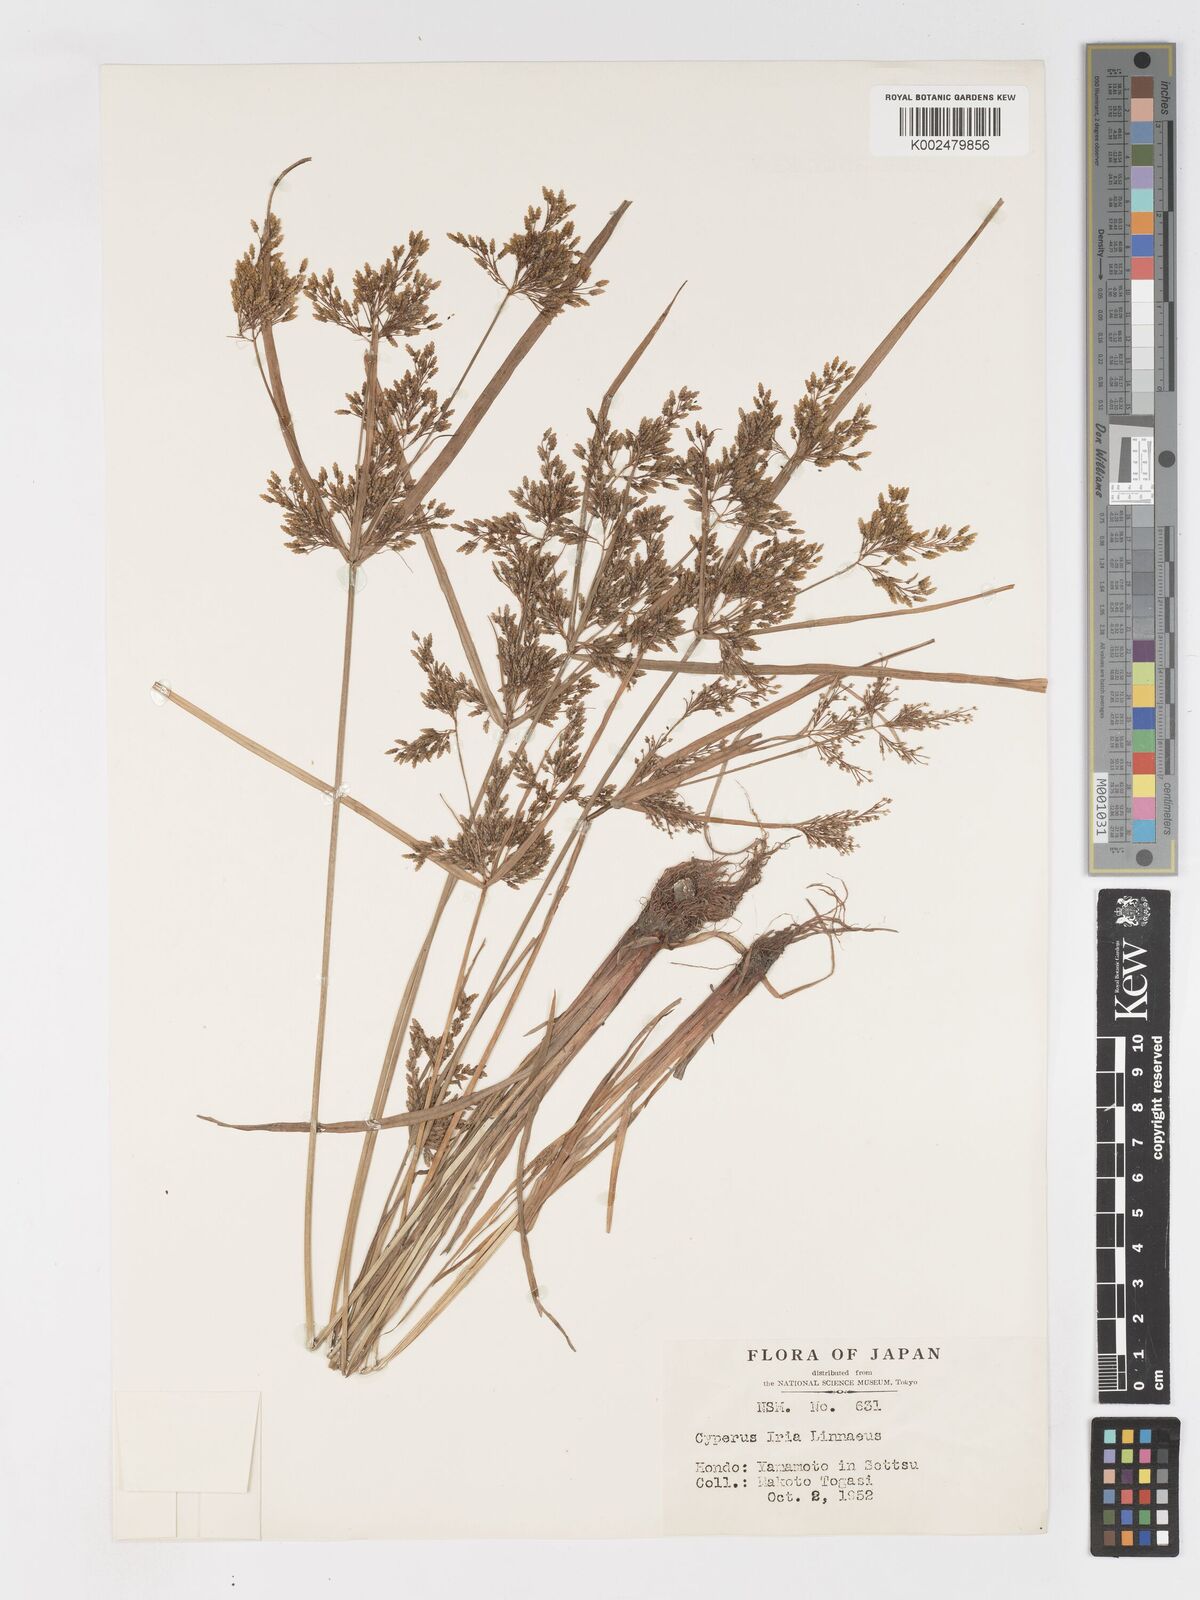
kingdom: Plantae
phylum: Tracheophyta
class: Liliopsida
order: Poales
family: Cyperaceae
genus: Cyperus
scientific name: Cyperus iria
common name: Ricefield flatsedge
